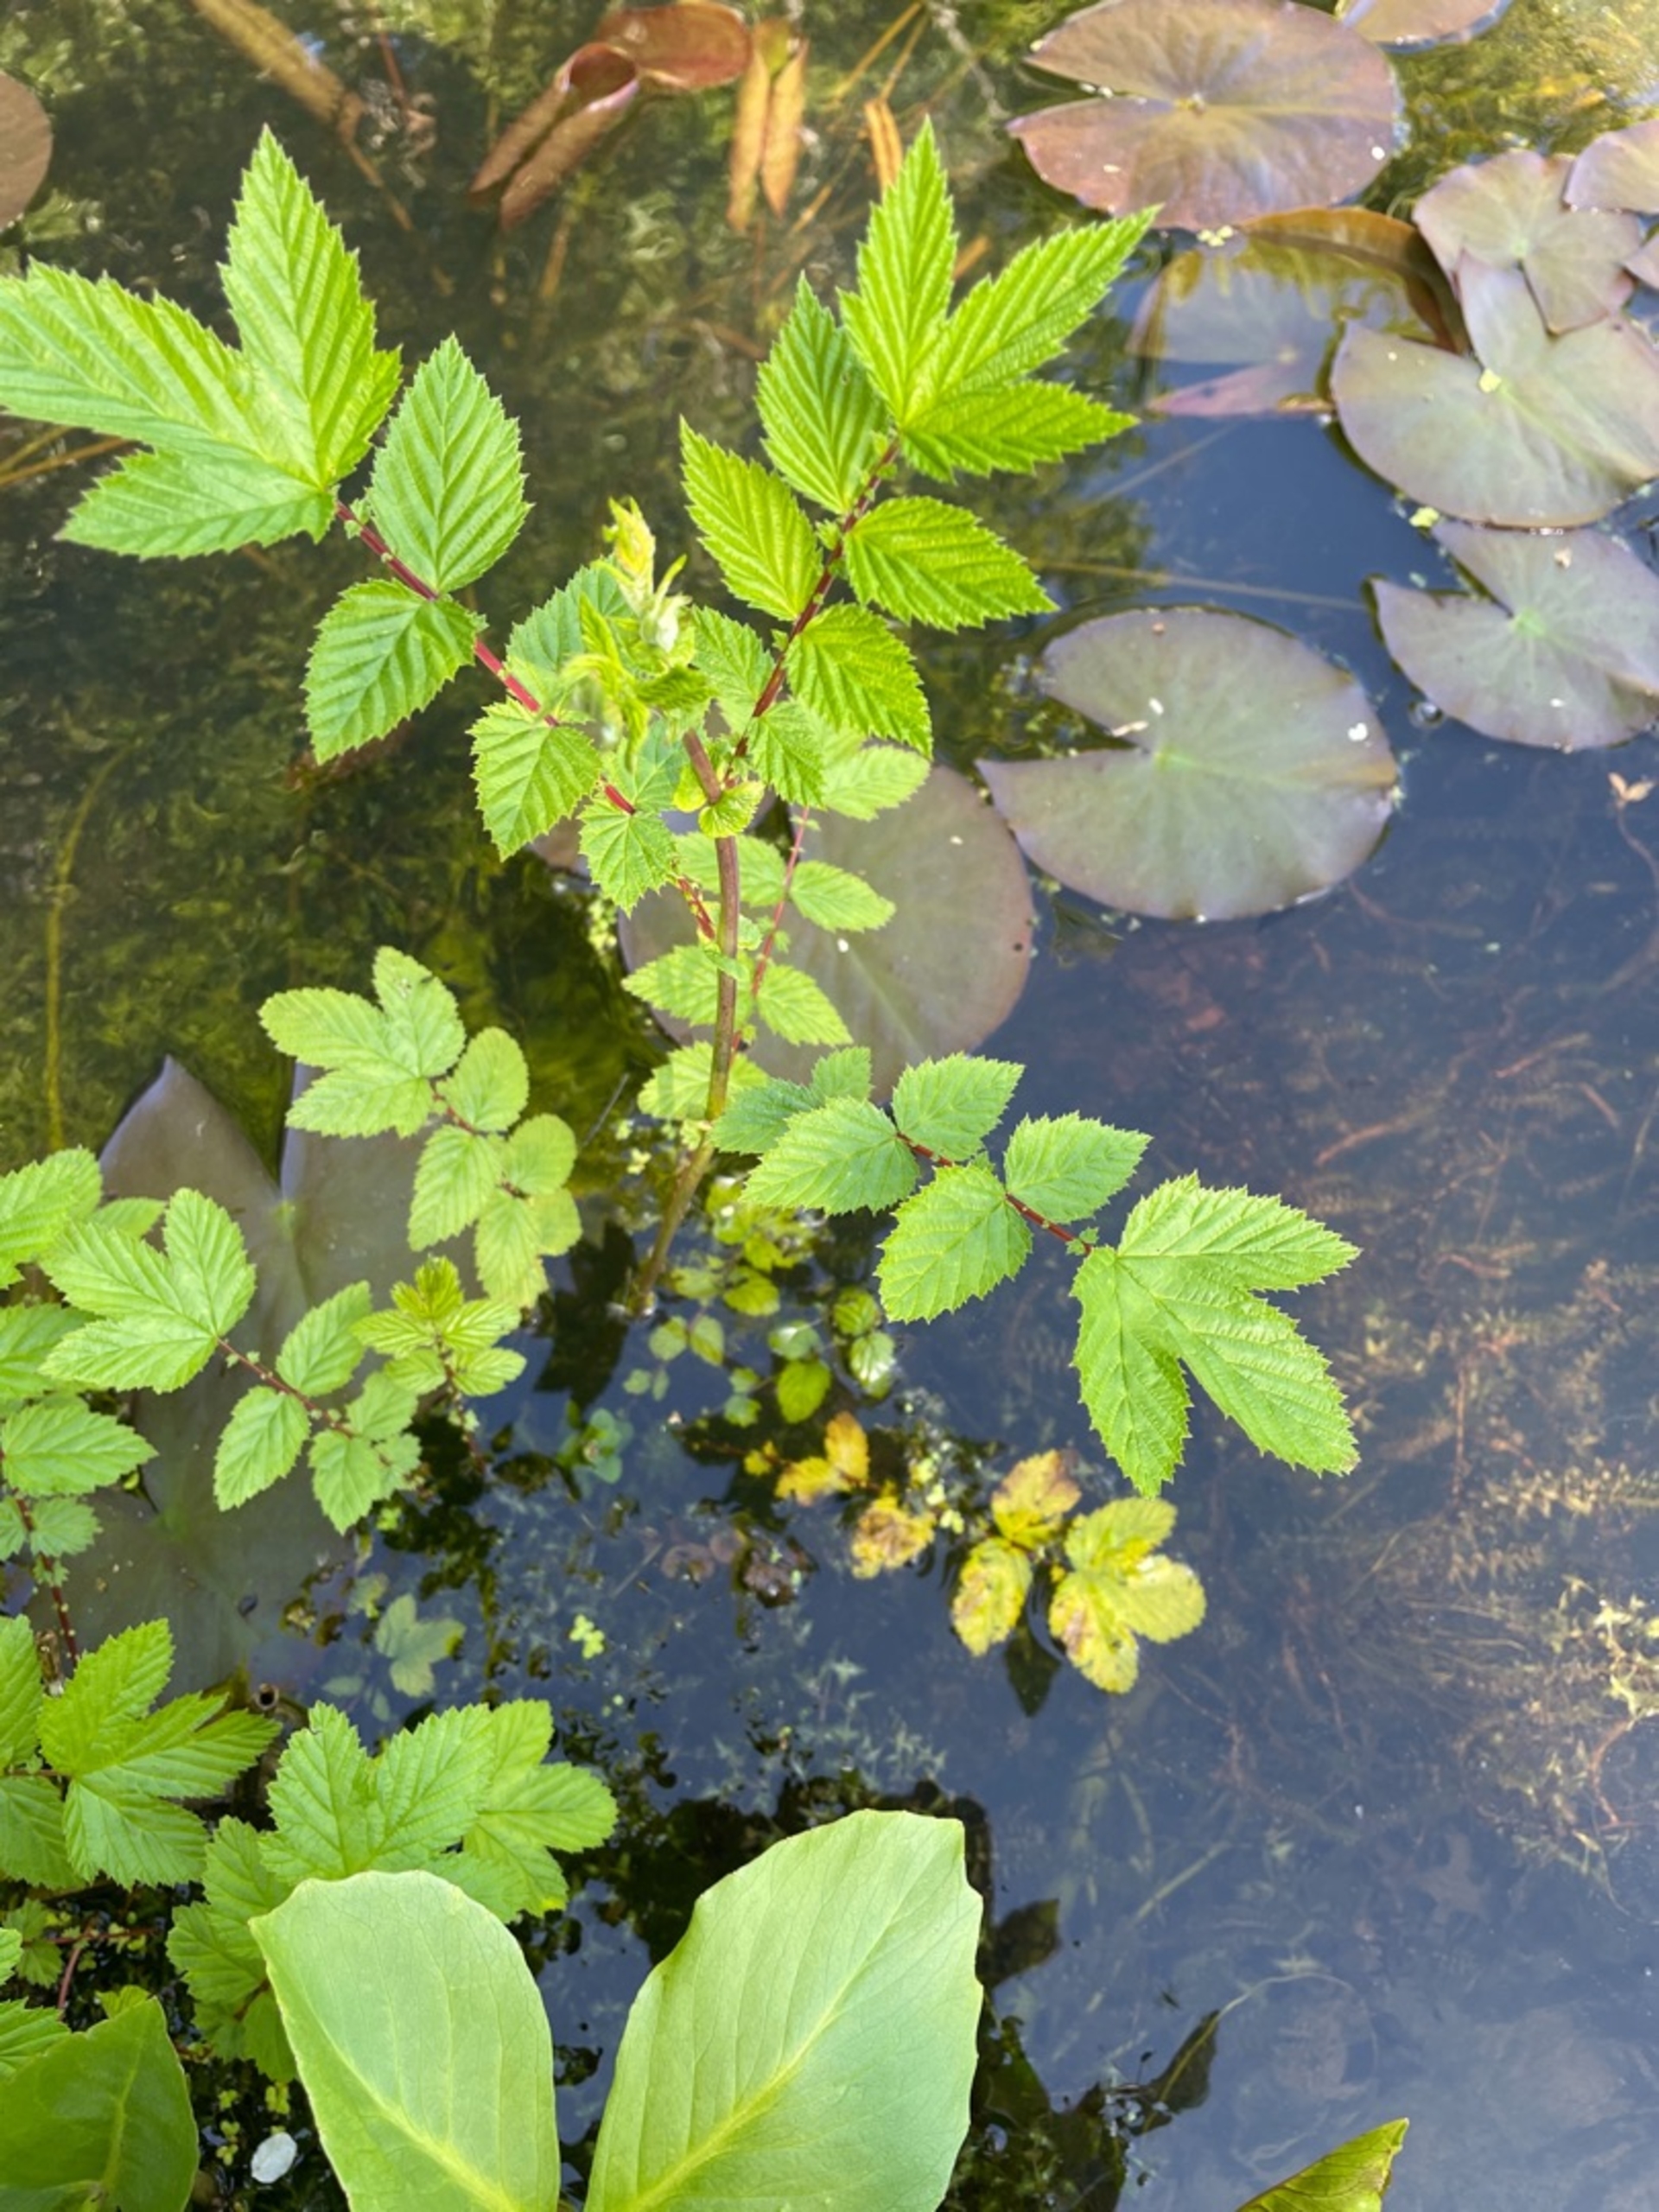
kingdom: Plantae
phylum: Tracheophyta
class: Magnoliopsida
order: Rosales
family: Rosaceae
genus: Filipendula
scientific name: Filipendula ulmaria
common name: Almindelig mjødurt
